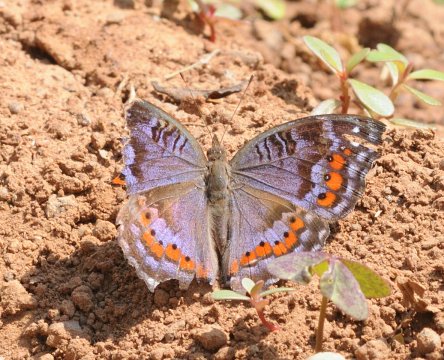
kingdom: Animalia
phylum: Arthropoda
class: Insecta
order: Lepidoptera
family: Nymphalidae
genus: Precis
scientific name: Precis octavia
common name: Gaudy Commodore
